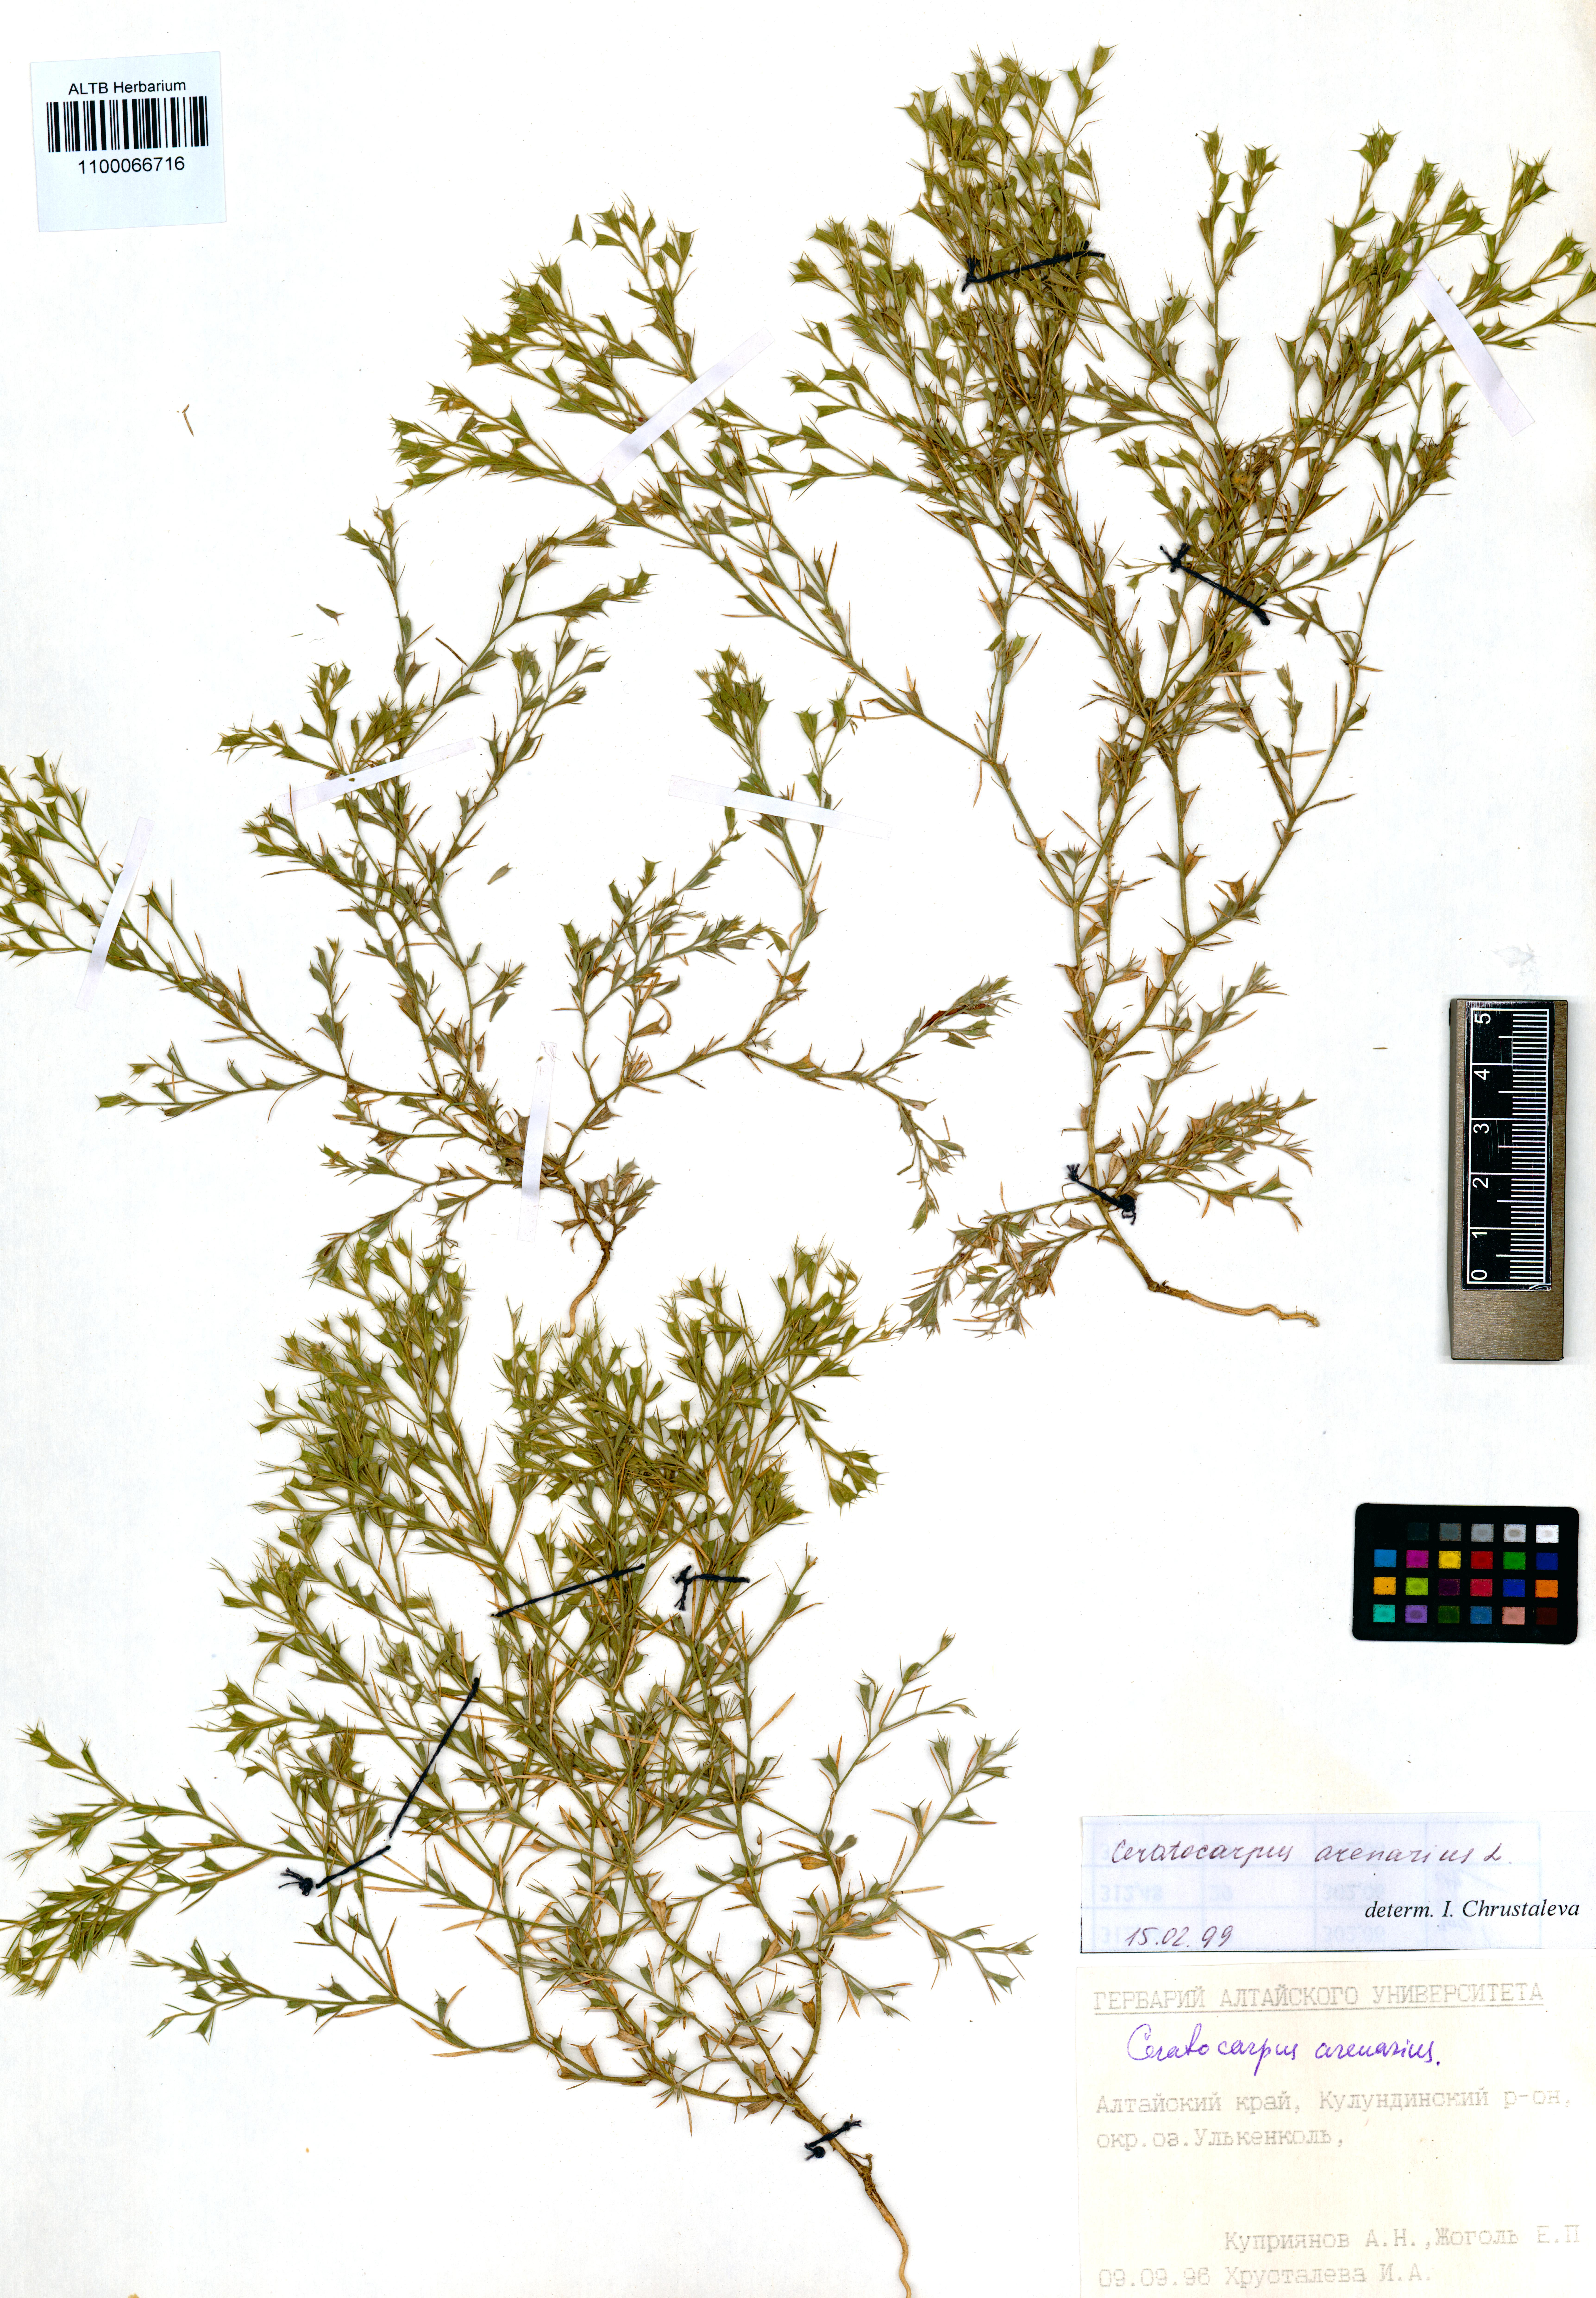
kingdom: Plantae
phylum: Tracheophyta
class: Magnoliopsida
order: Caryophyllales
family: Amaranthaceae
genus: Ceratocarpus
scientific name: Ceratocarpus arenarius
